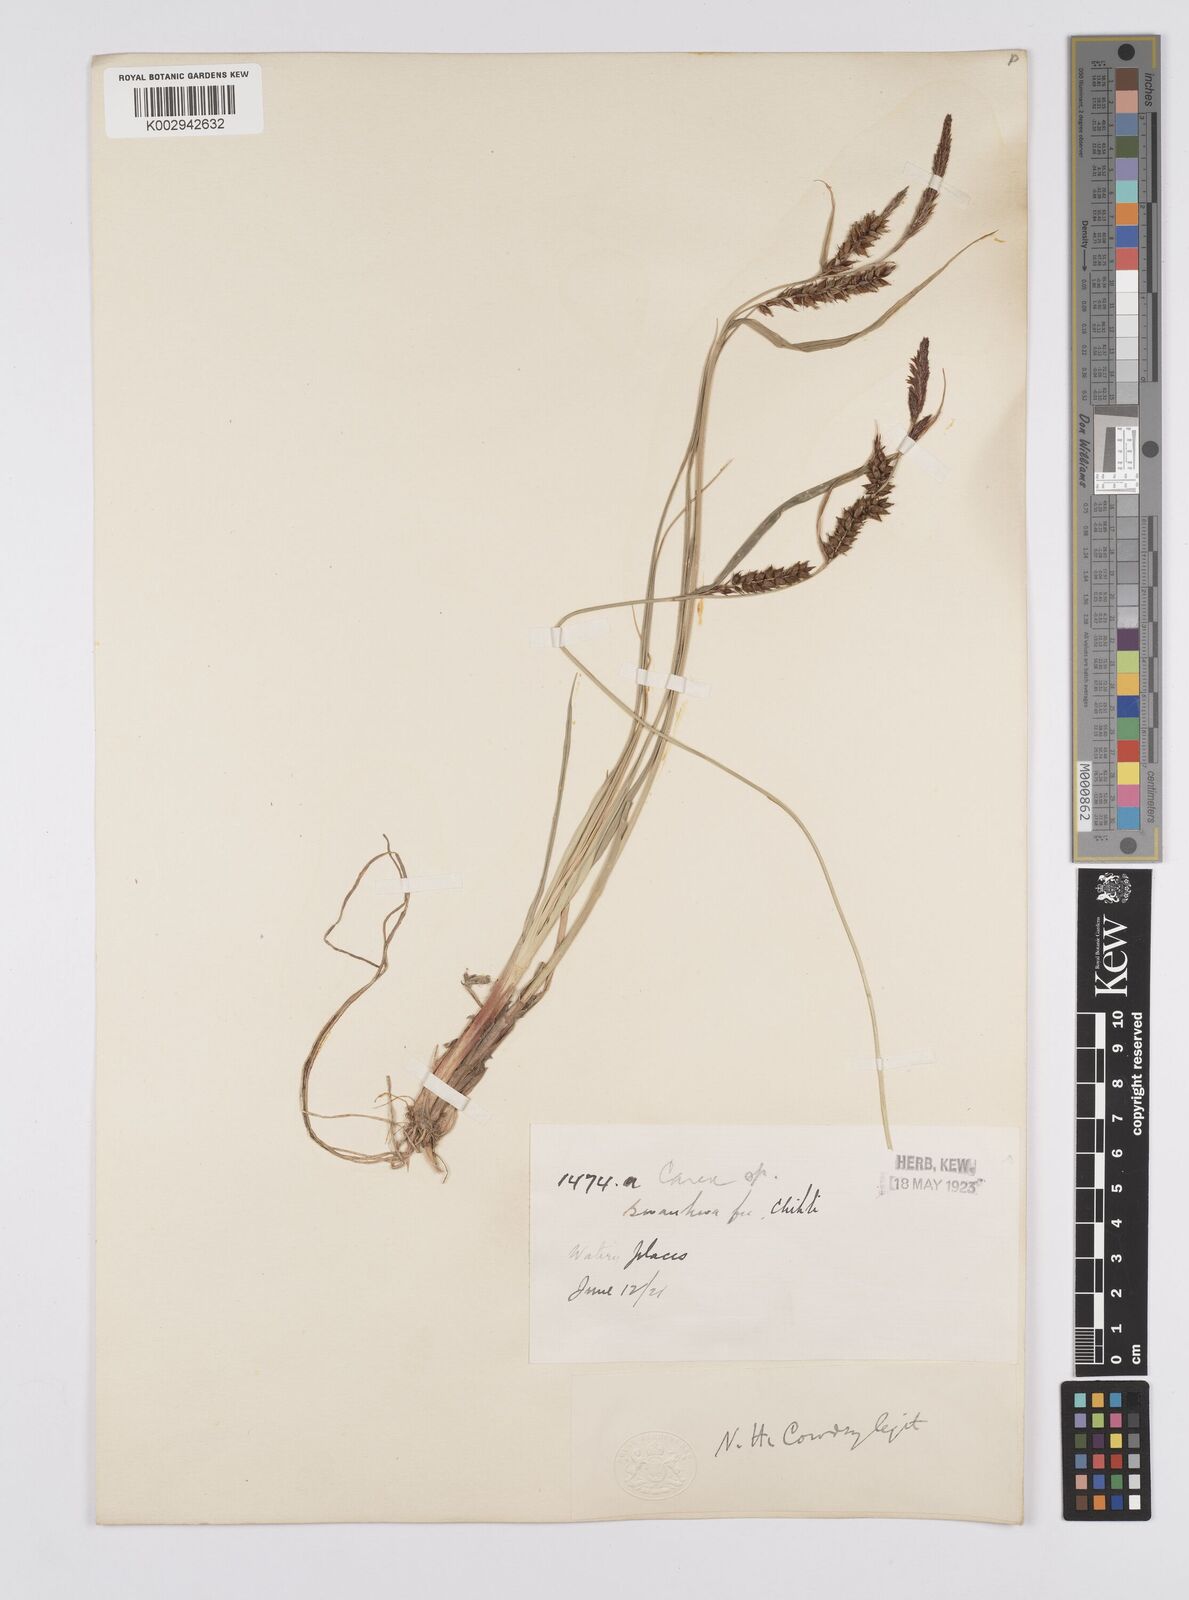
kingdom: Plantae
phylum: Tracheophyta
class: Liliopsida
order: Poales
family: Cyperaceae
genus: Carex
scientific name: Carex pumila
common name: Dwarf sedge
